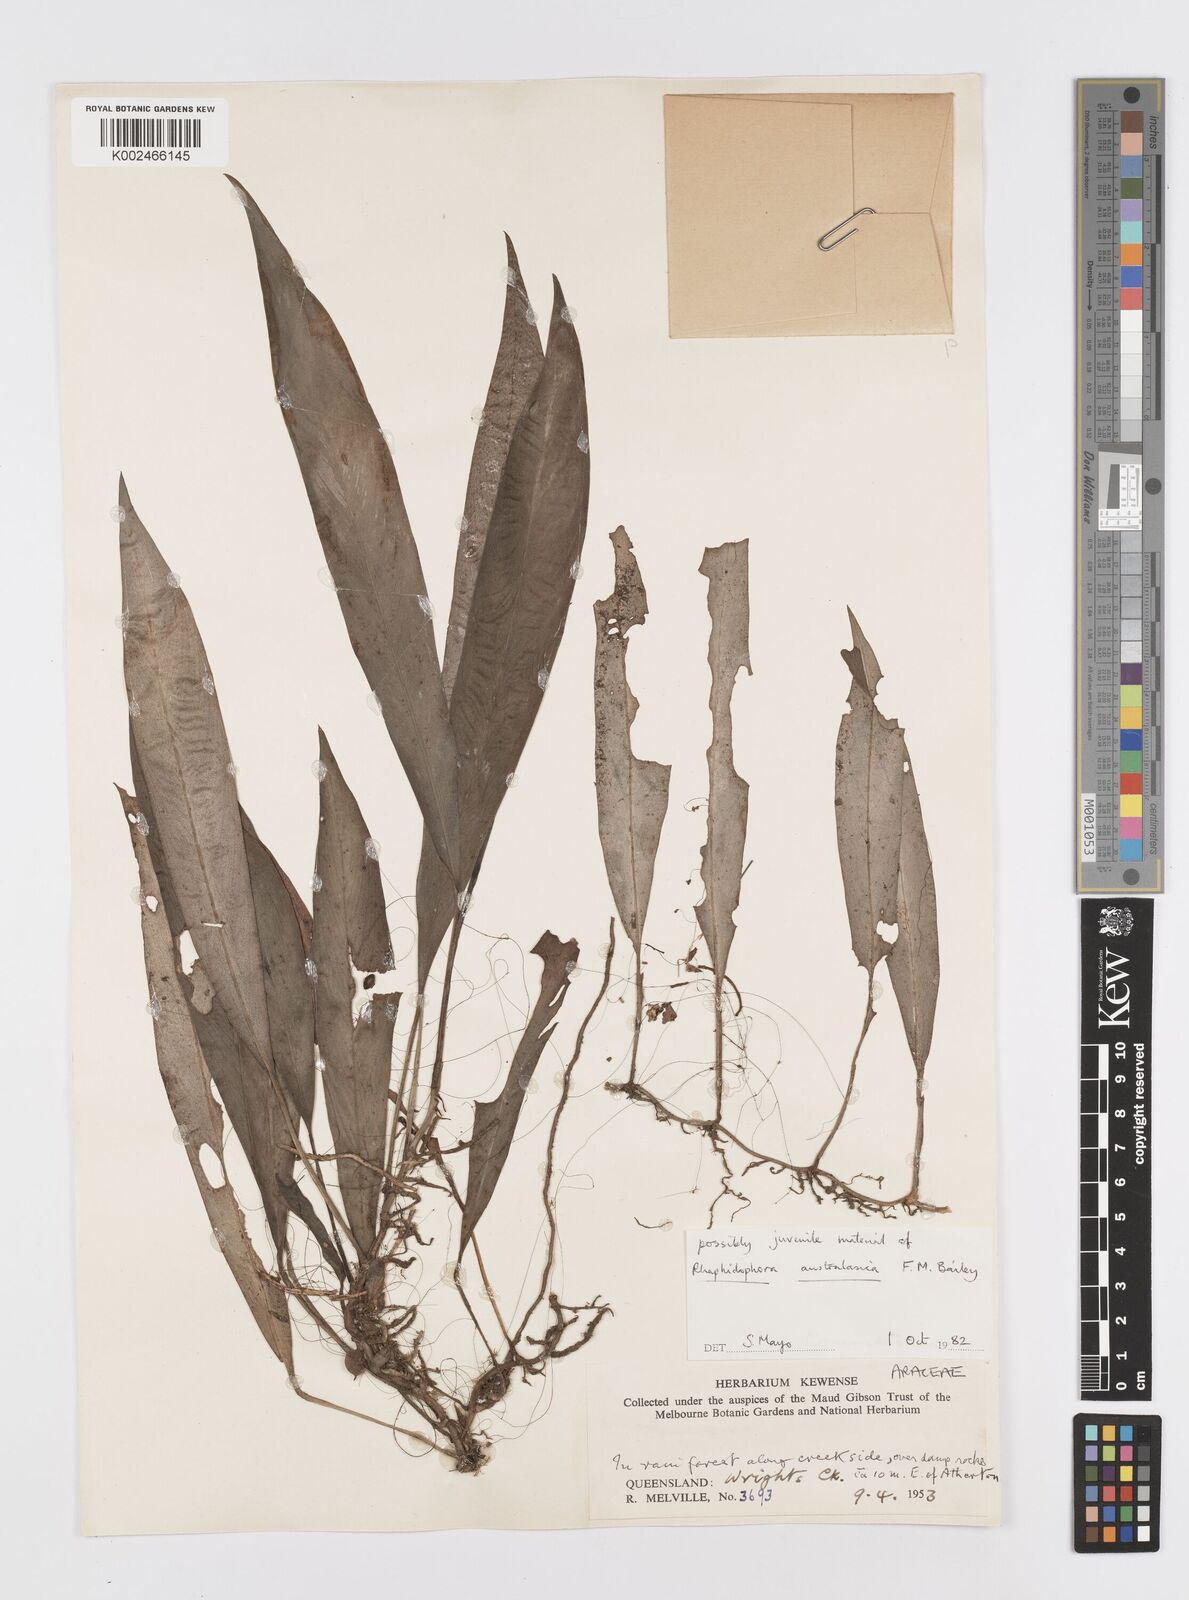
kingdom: Plantae
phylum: Tracheophyta
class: Liliopsida
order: Alismatales
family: Araceae
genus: Rhaphidophora
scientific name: Rhaphidophora australasica
